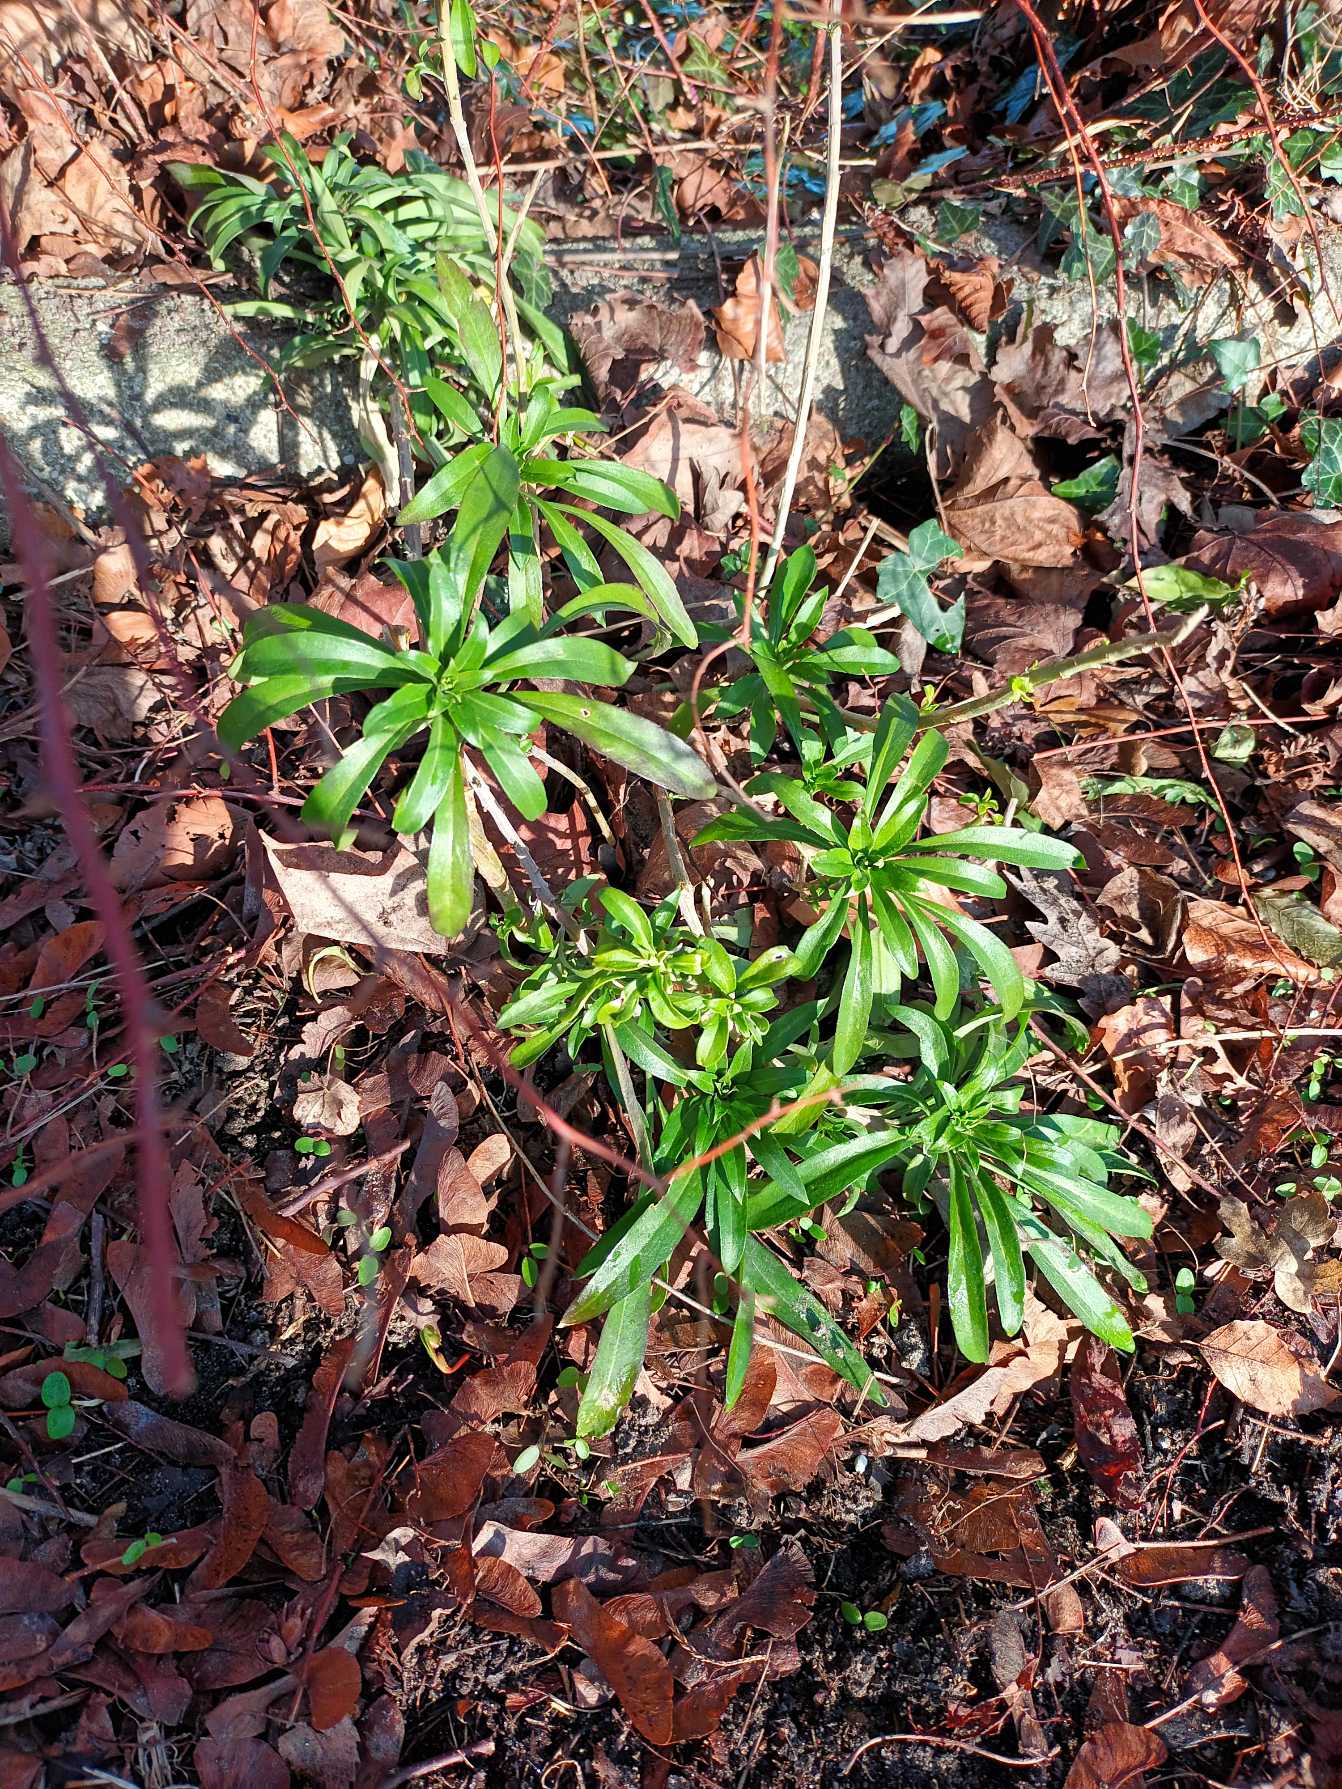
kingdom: Plantae
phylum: Tracheophyta
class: Magnoliopsida
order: Brassicales
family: Brassicaceae
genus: Erysimum
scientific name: Erysimum cheiri
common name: Gyldenlak
